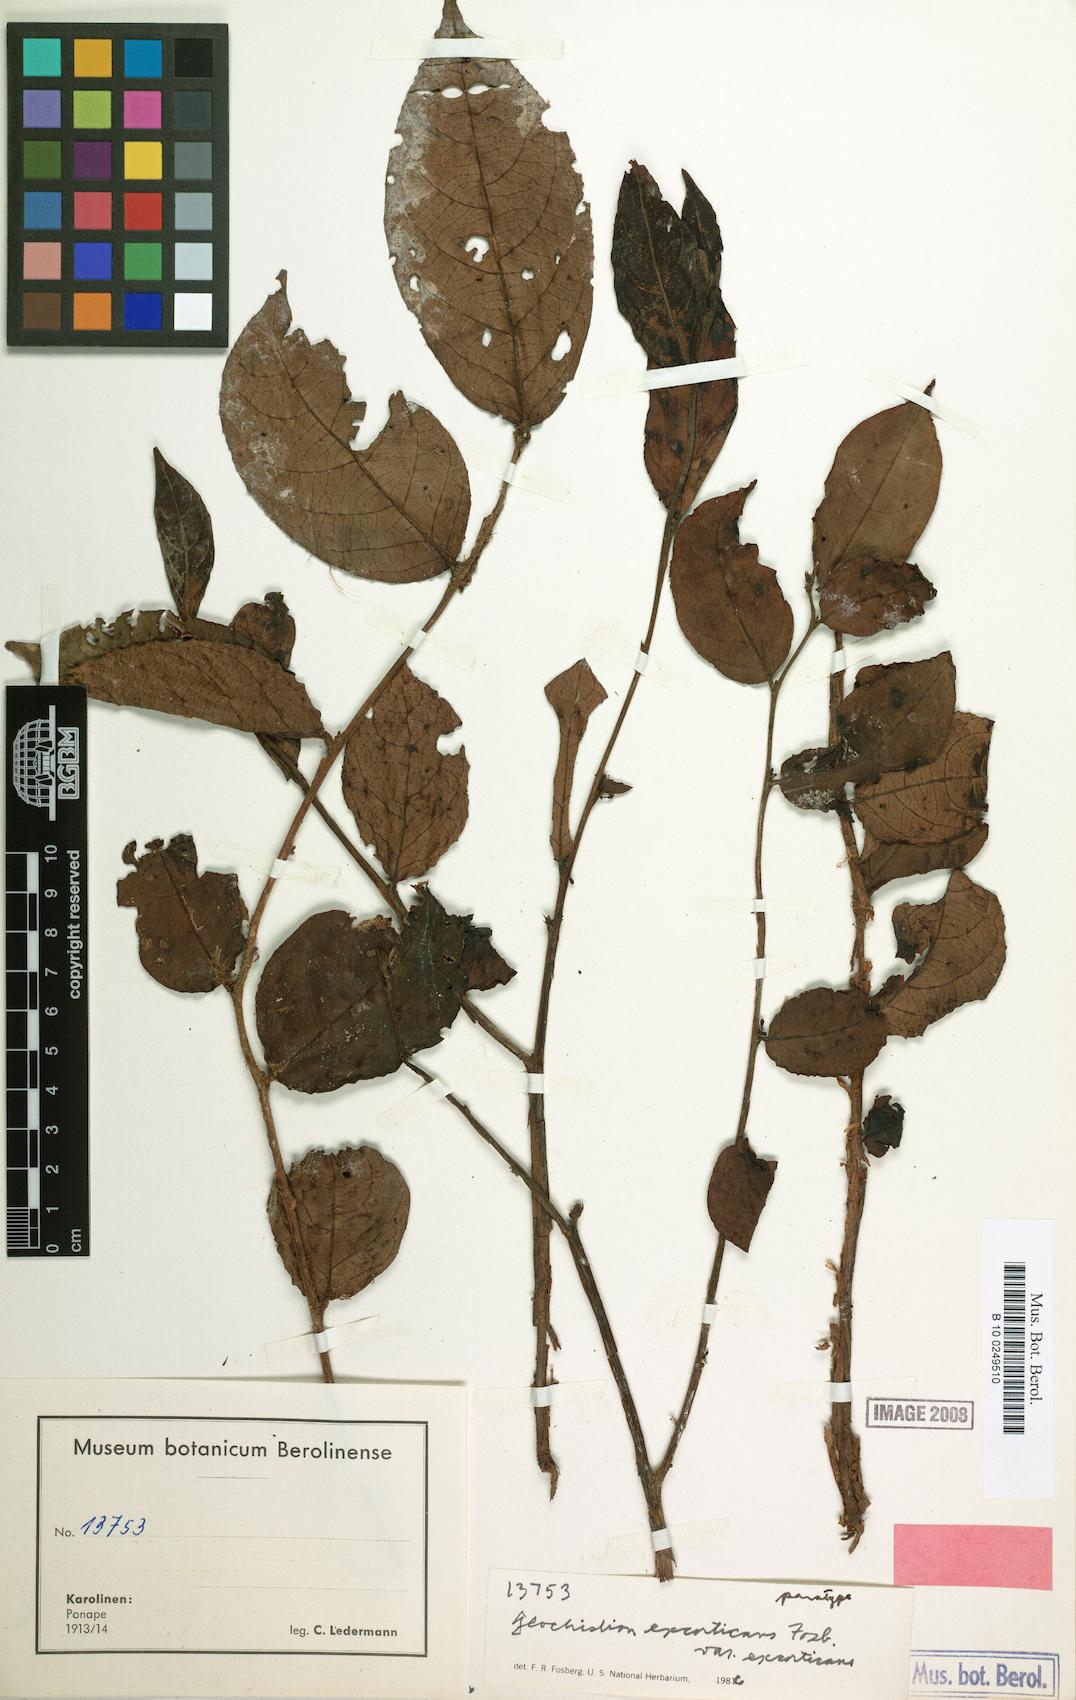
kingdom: Plantae
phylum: Tracheophyta
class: Magnoliopsida
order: Malpighiales
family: Phyllanthaceae
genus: Glochidion
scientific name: Glochidion puberulum
